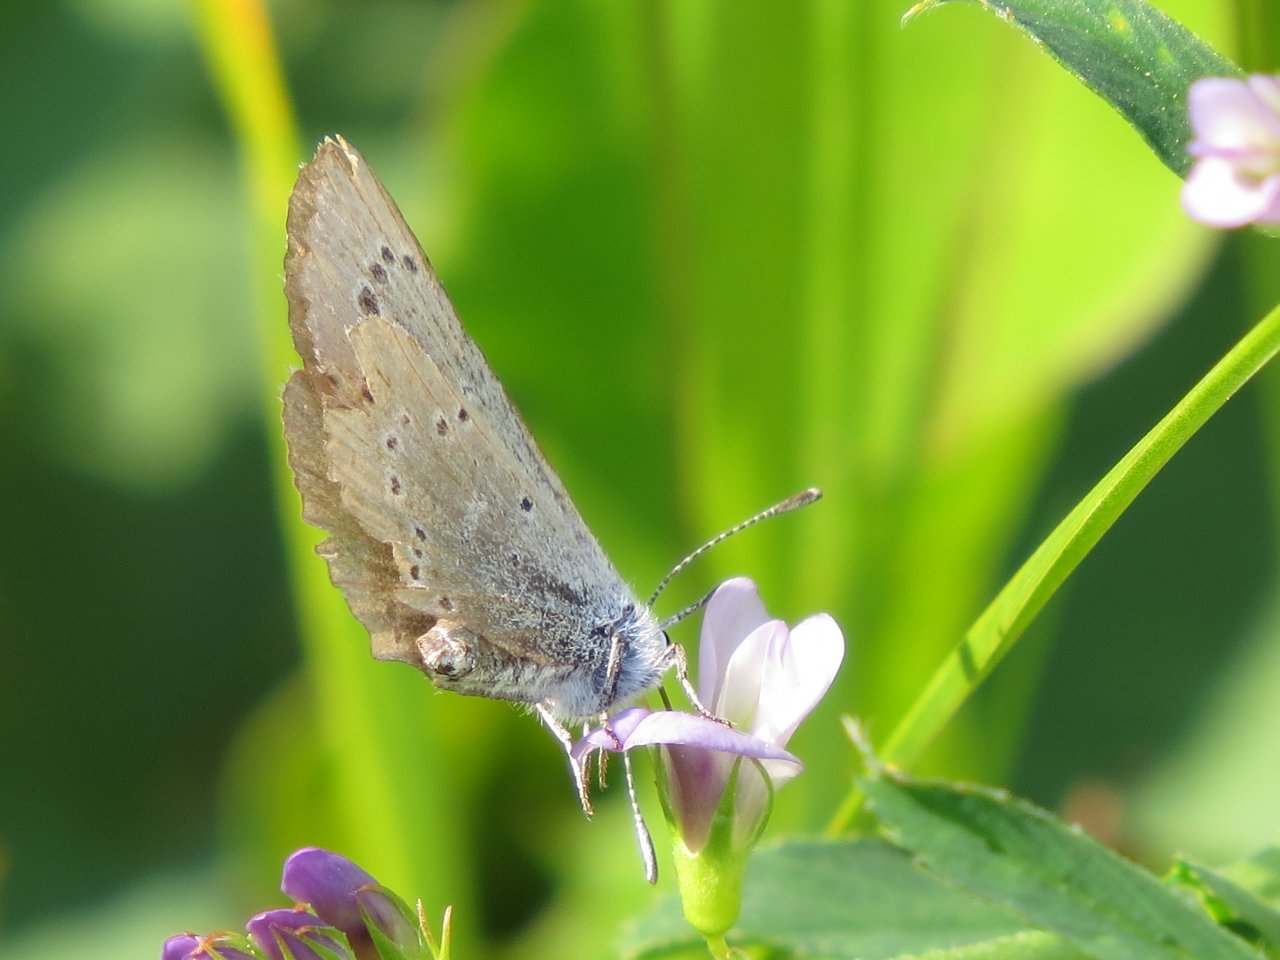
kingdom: Animalia
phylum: Arthropoda
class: Insecta
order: Lepidoptera
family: Lycaenidae
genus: Glaucopsyche
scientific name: Glaucopsyche lygdamus
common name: Silvery Blue
